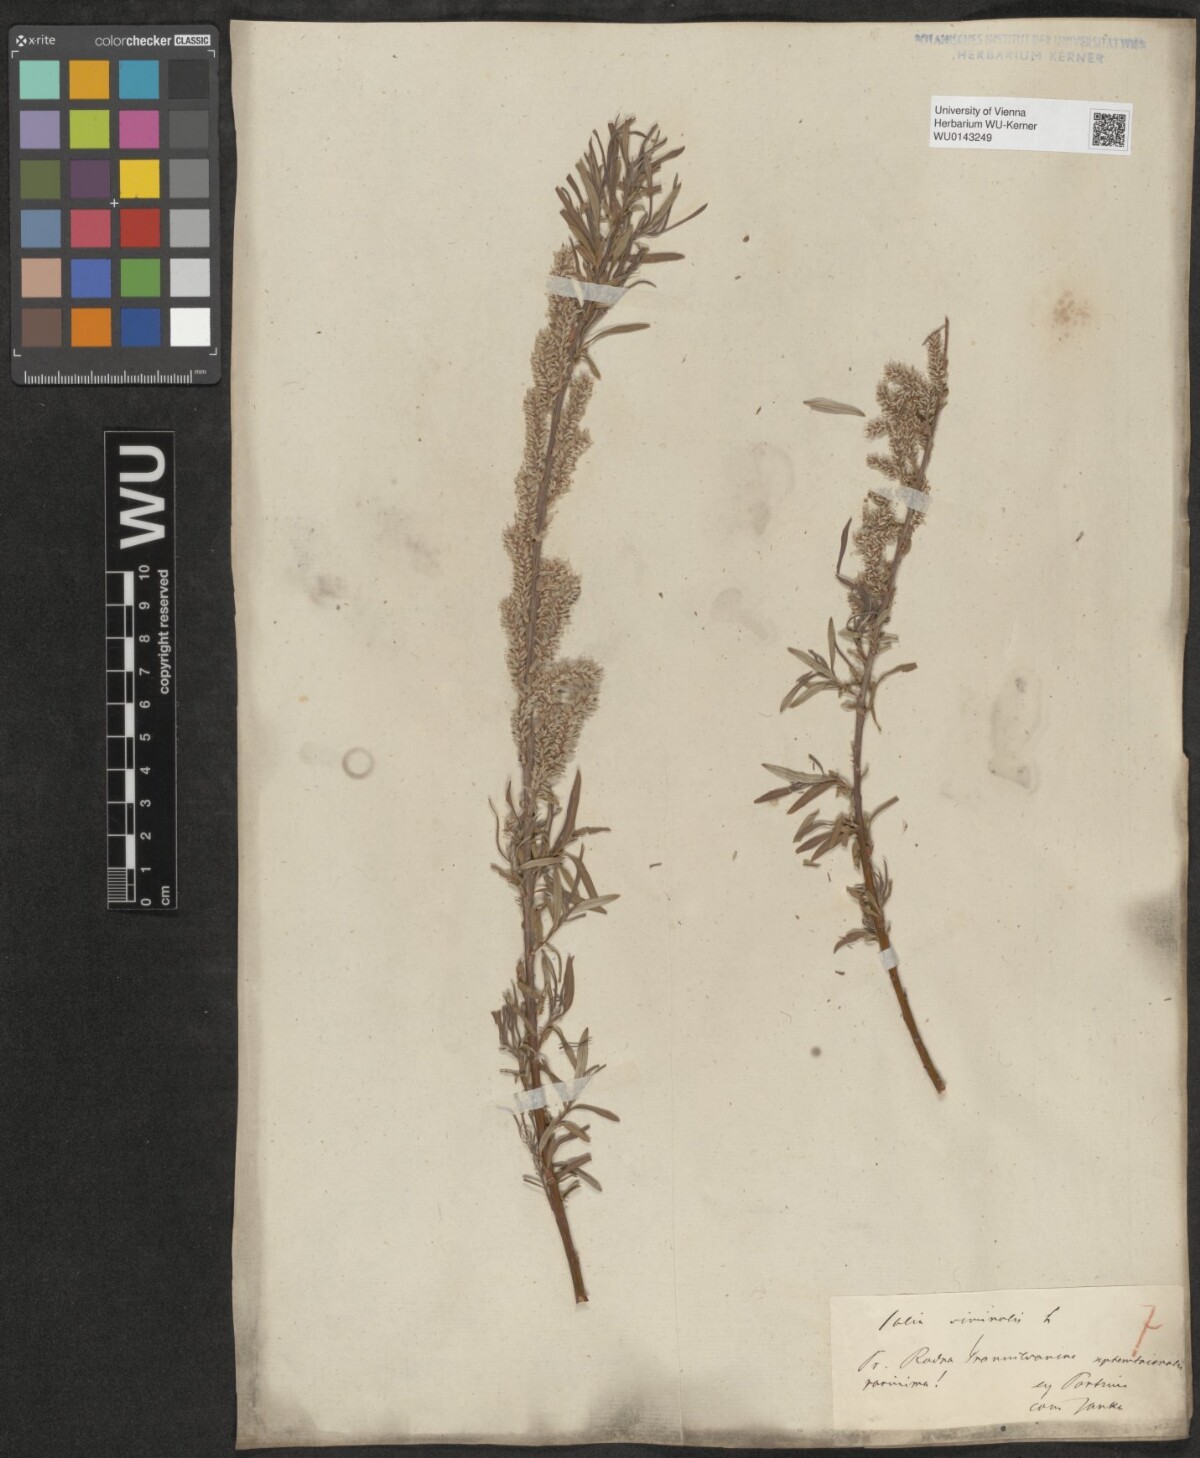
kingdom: Plantae
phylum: Tracheophyta
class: Magnoliopsida
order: Malpighiales
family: Salicaceae
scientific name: Salicaceae
